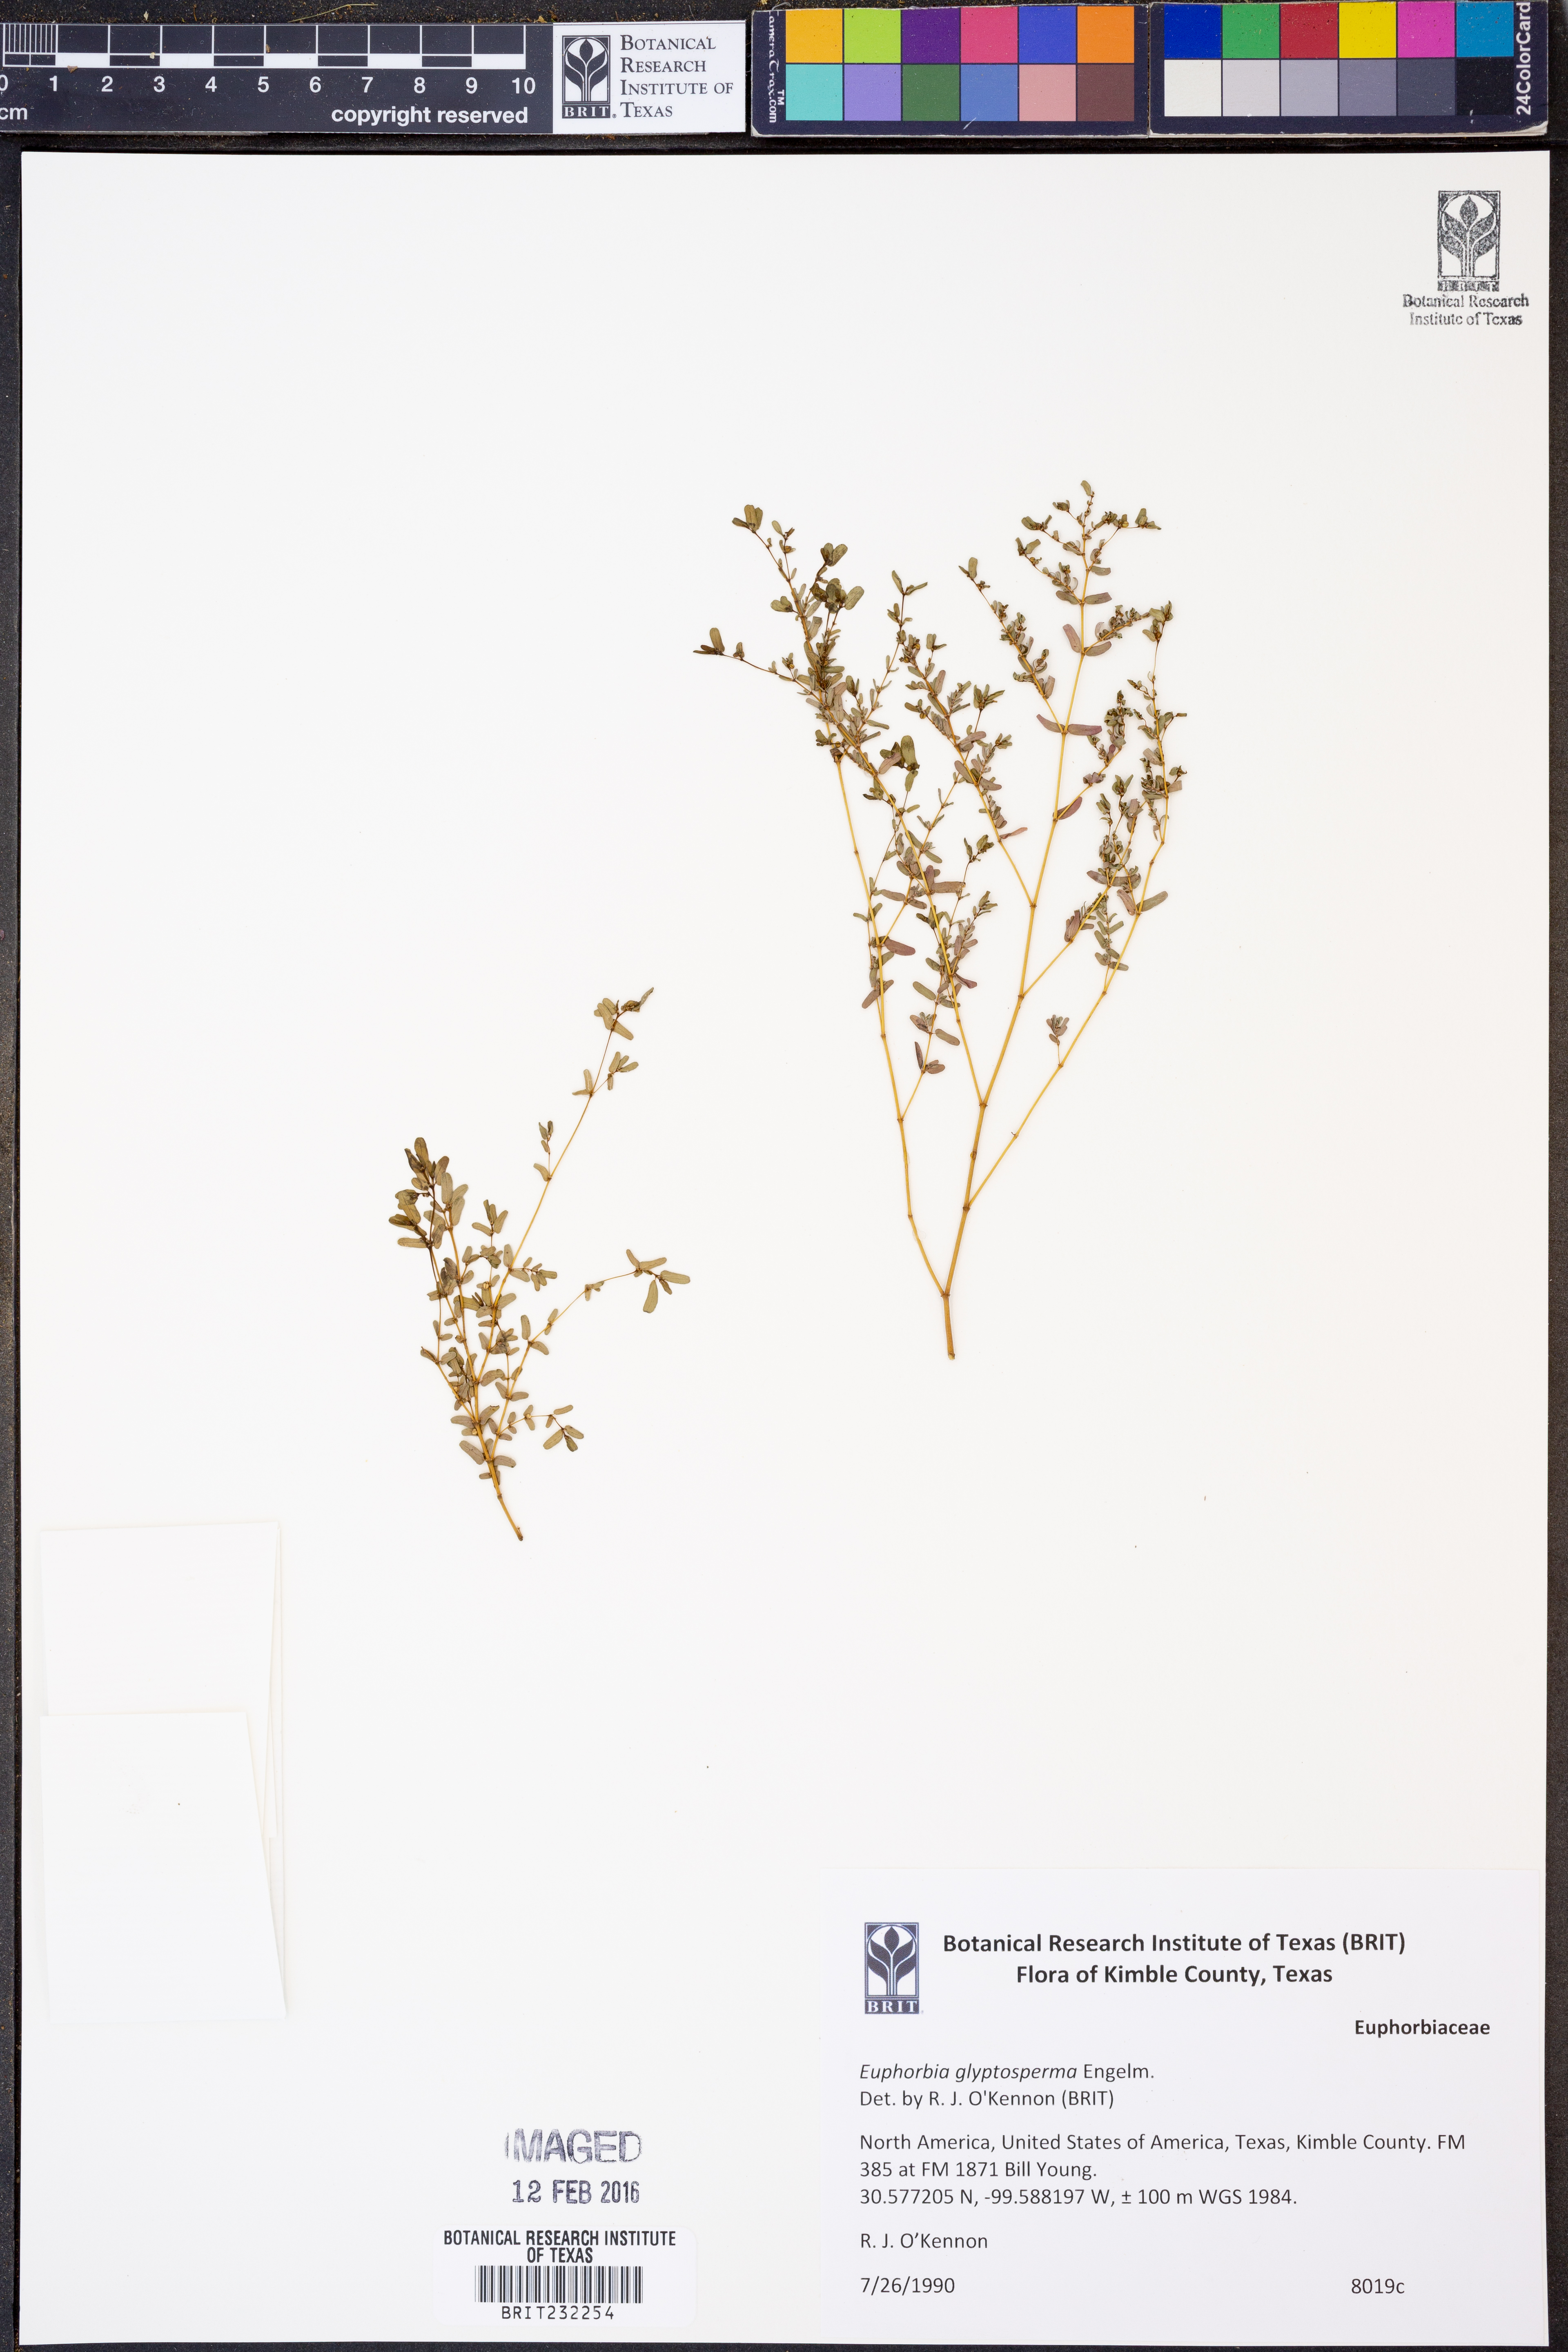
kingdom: Plantae
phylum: Tracheophyta
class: Magnoliopsida
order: Malpighiales
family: Euphorbiaceae
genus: Euphorbia
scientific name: Euphorbia glyptosperma
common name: Corrugate-seeded spurge
